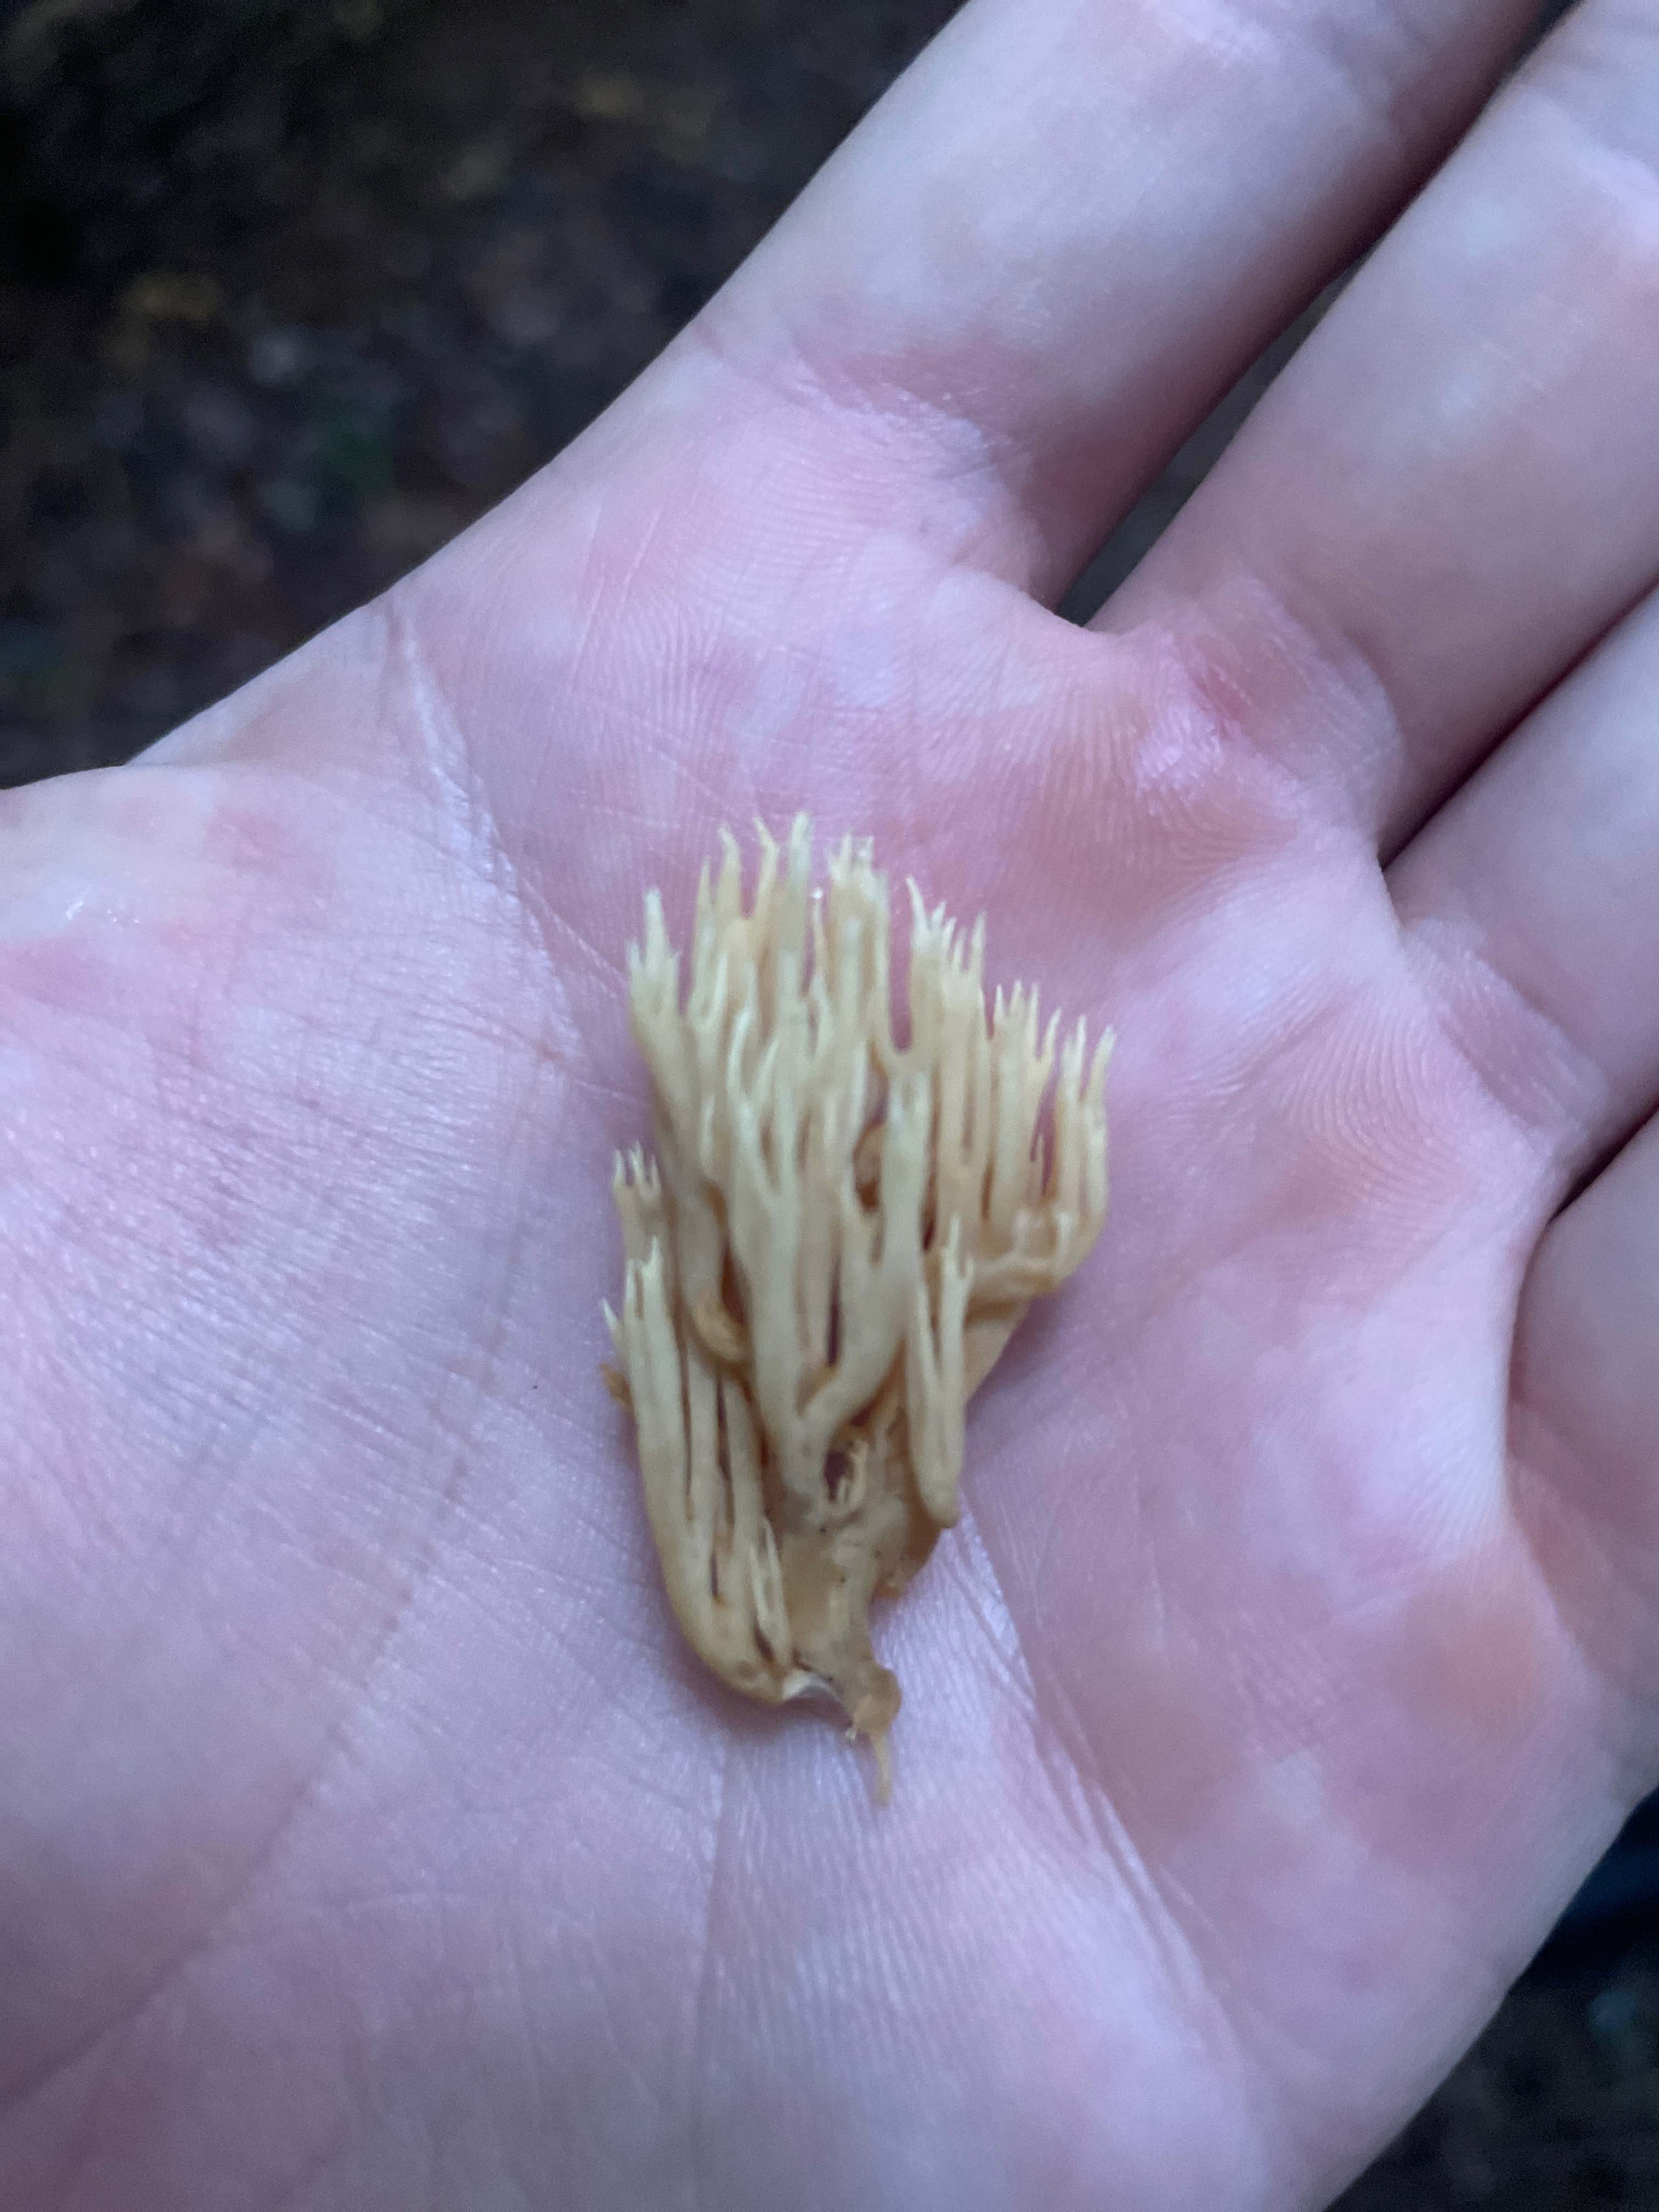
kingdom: Fungi
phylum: Basidiomycota
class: Agaricomycetes
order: Gomphales
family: Gomphaceae
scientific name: Gomphaceae
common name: køllekantarelfamilien
